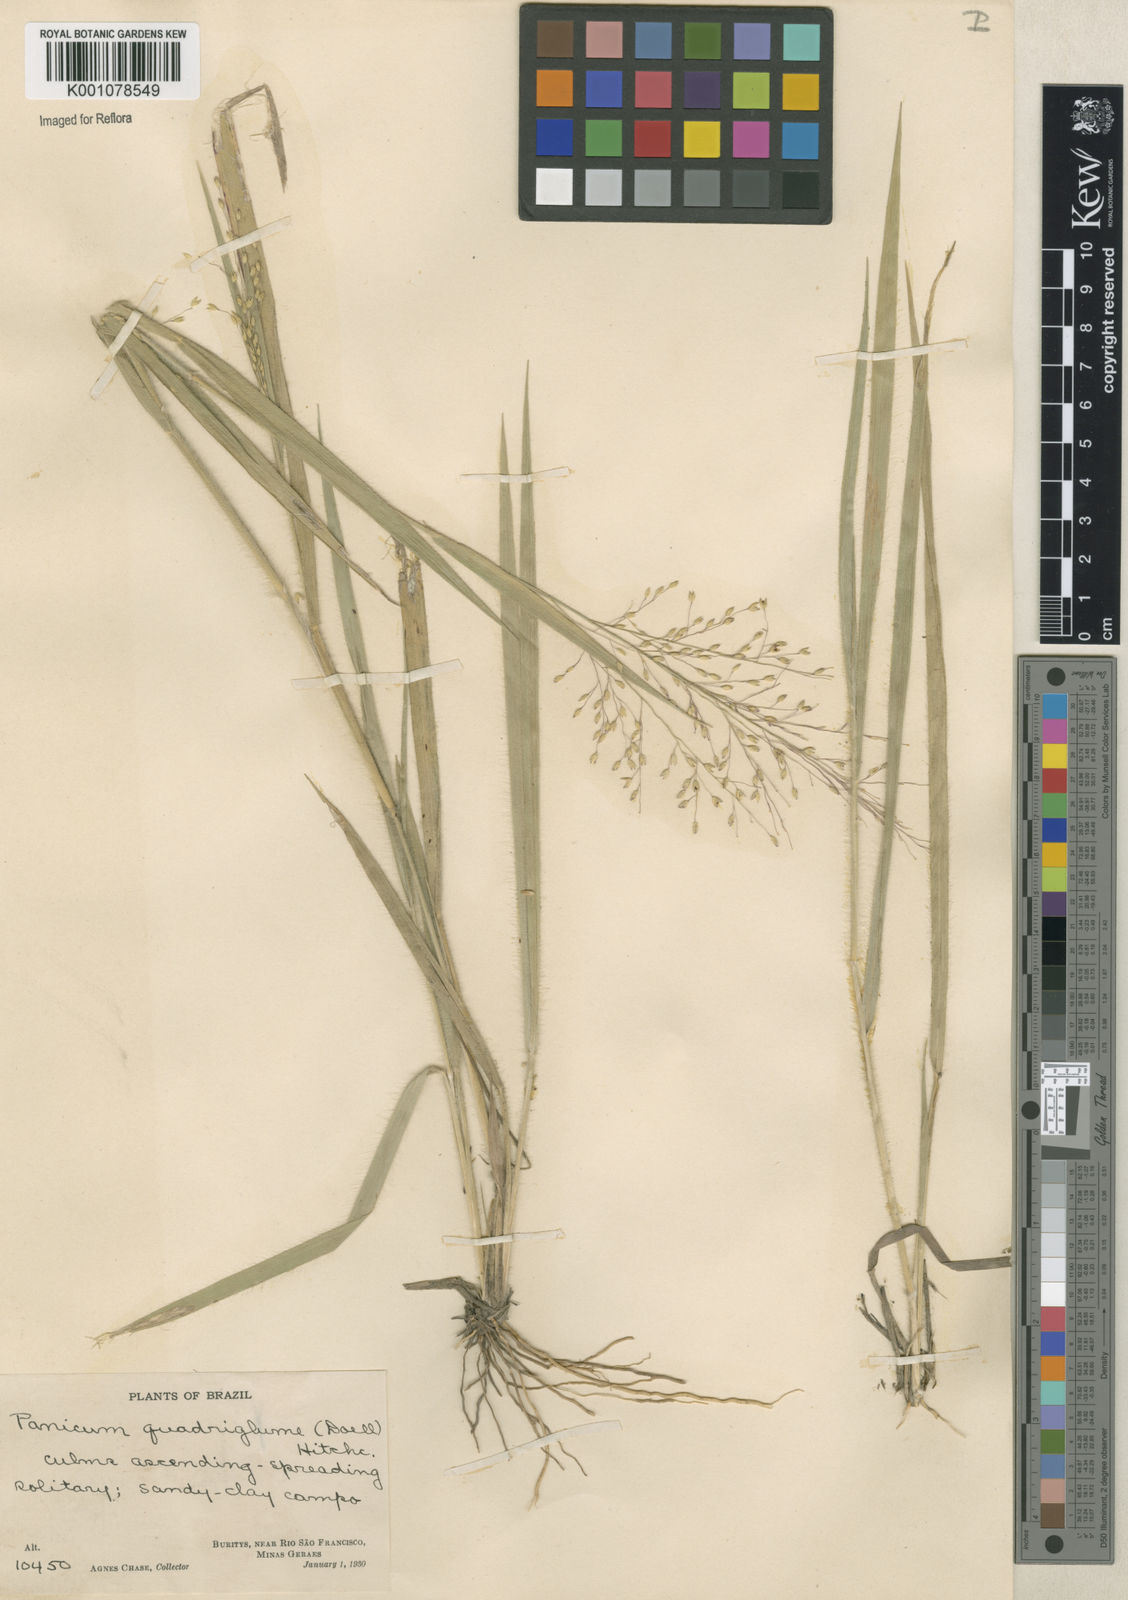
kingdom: Plantae
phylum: Tracheophyta
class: Liliopsida
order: Poales
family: Poaceae
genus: Panicum
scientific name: Panicum
